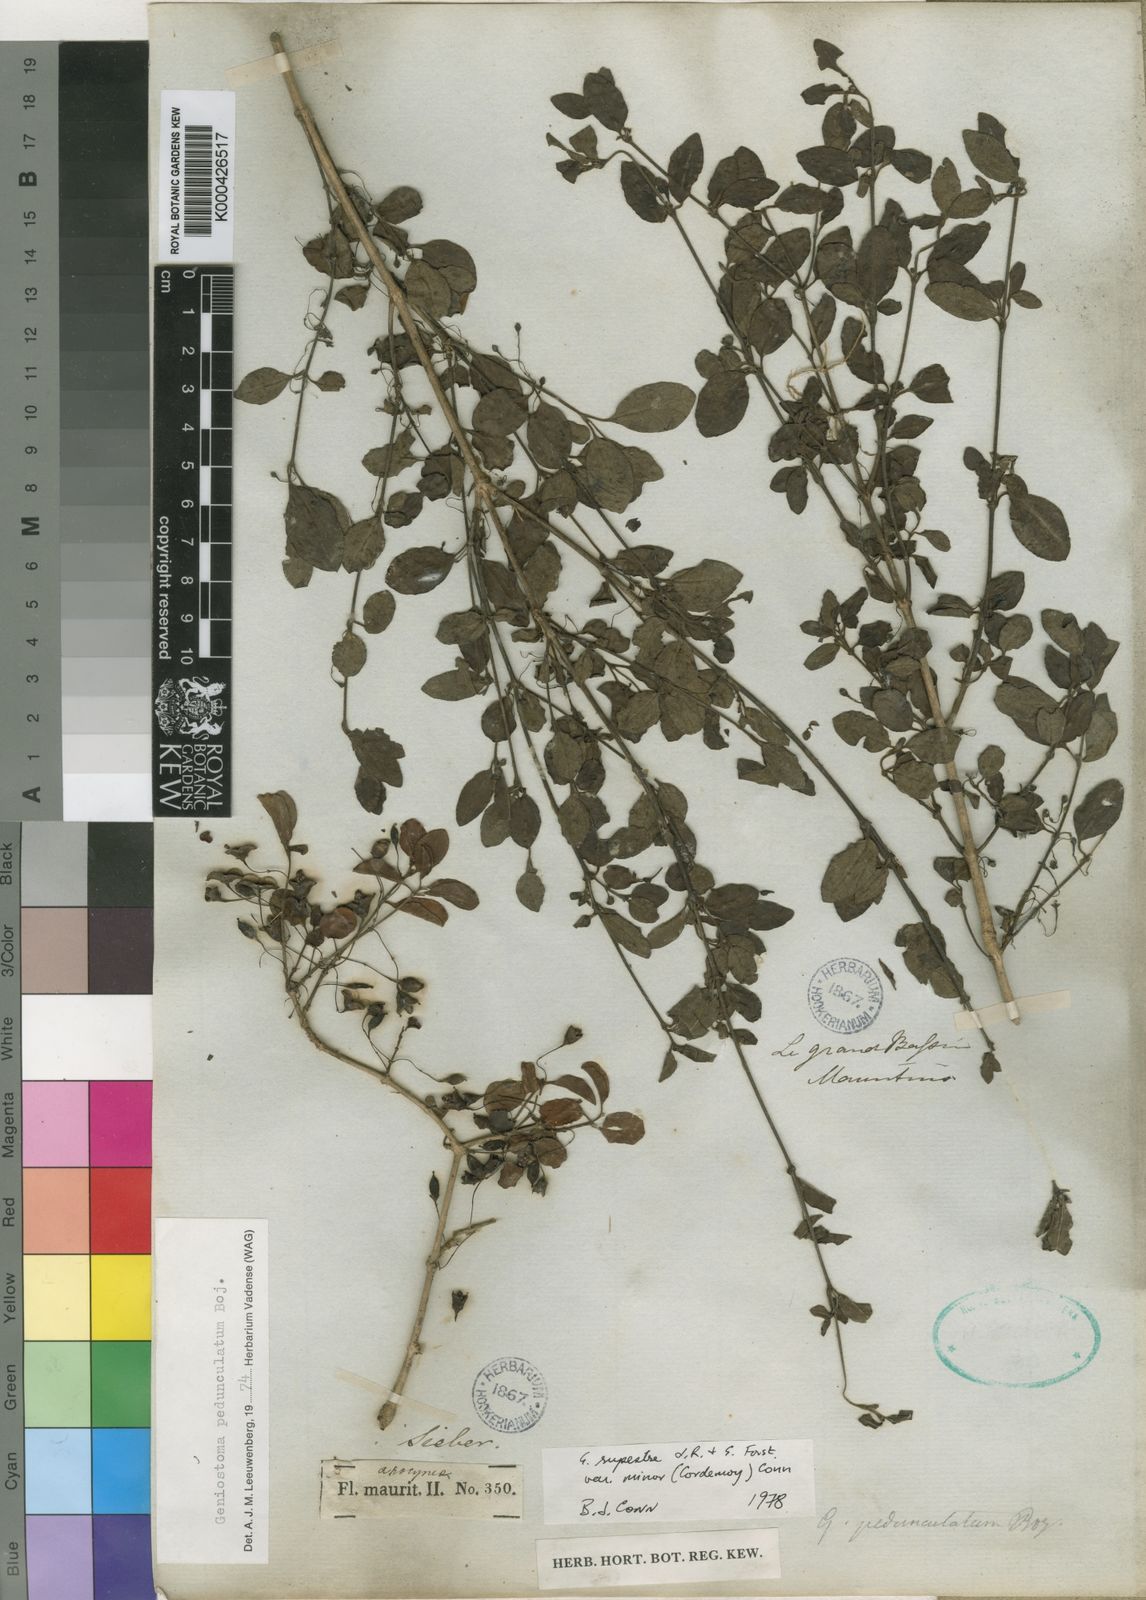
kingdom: Plantae
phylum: Tracheophyta
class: Magnoliopsida
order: Gentianales
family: Loganiaceae
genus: Geniostoma
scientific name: Geniostoma pedunculatum
